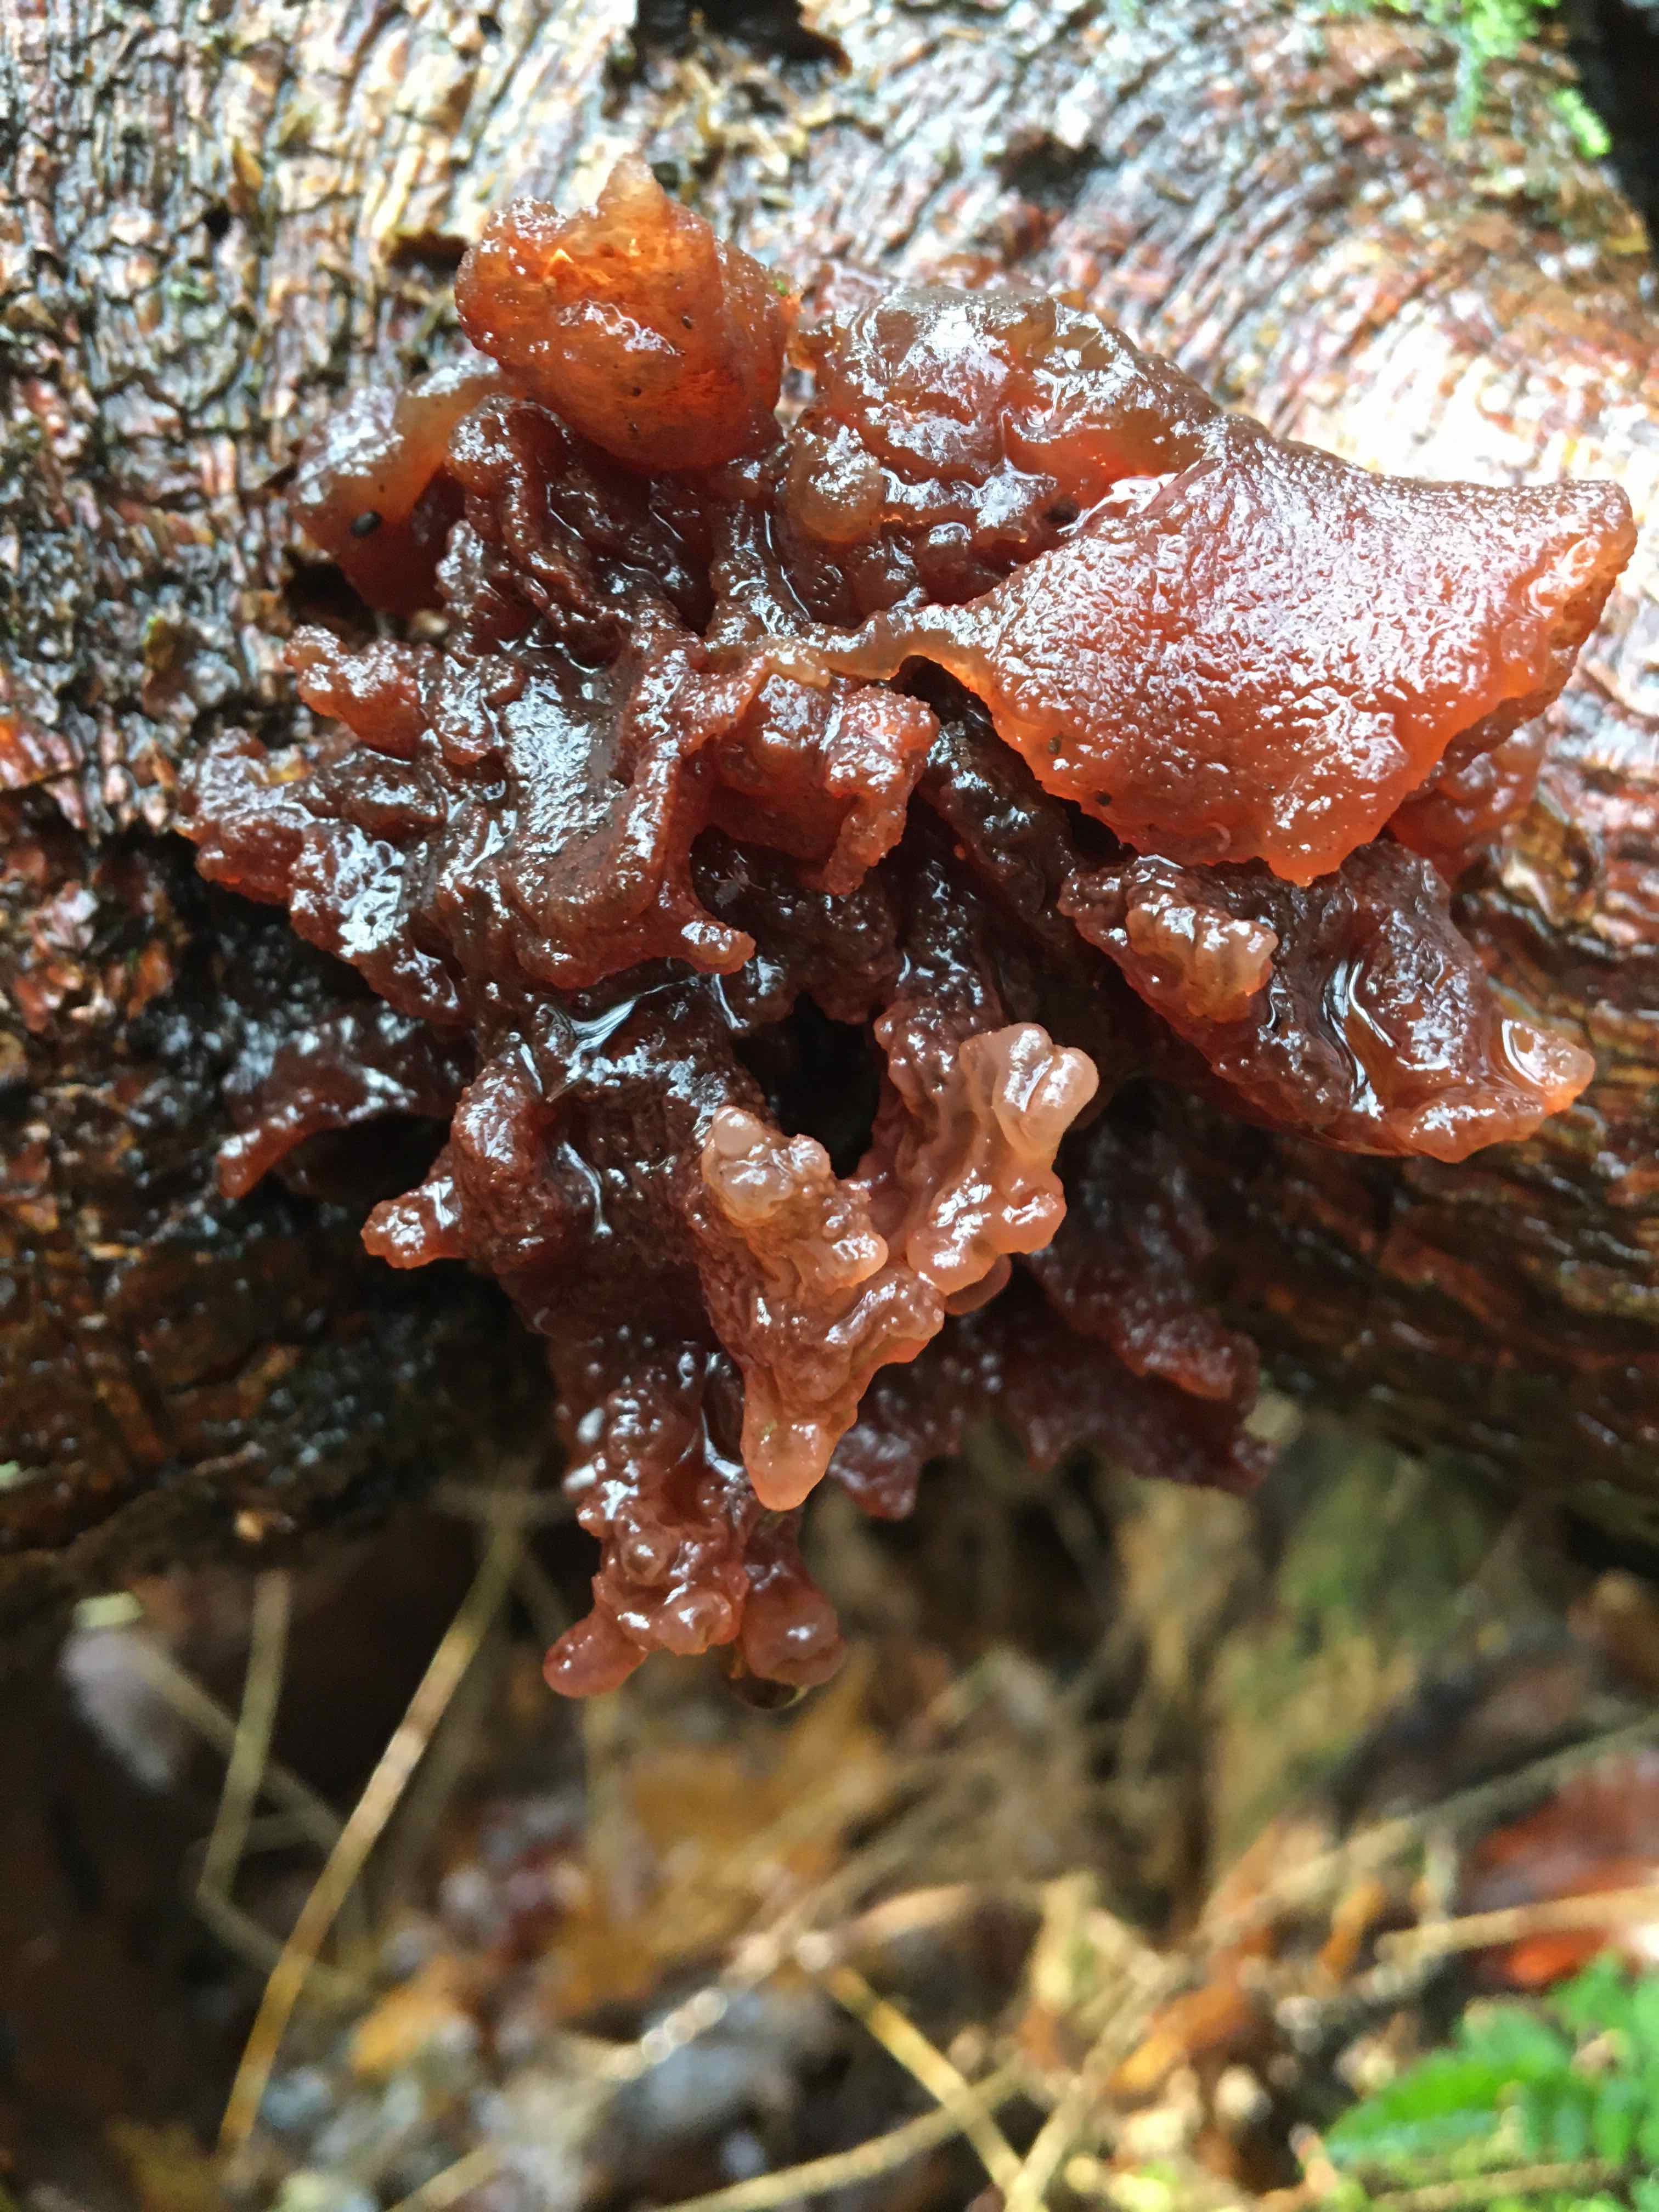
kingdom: Fungi
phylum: Basidiomycota
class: Tremellomycetes
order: Tremellales
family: Tremellaceae
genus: Phaeotremella
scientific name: Phaeotremella foliacea
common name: brun bævresvamp
